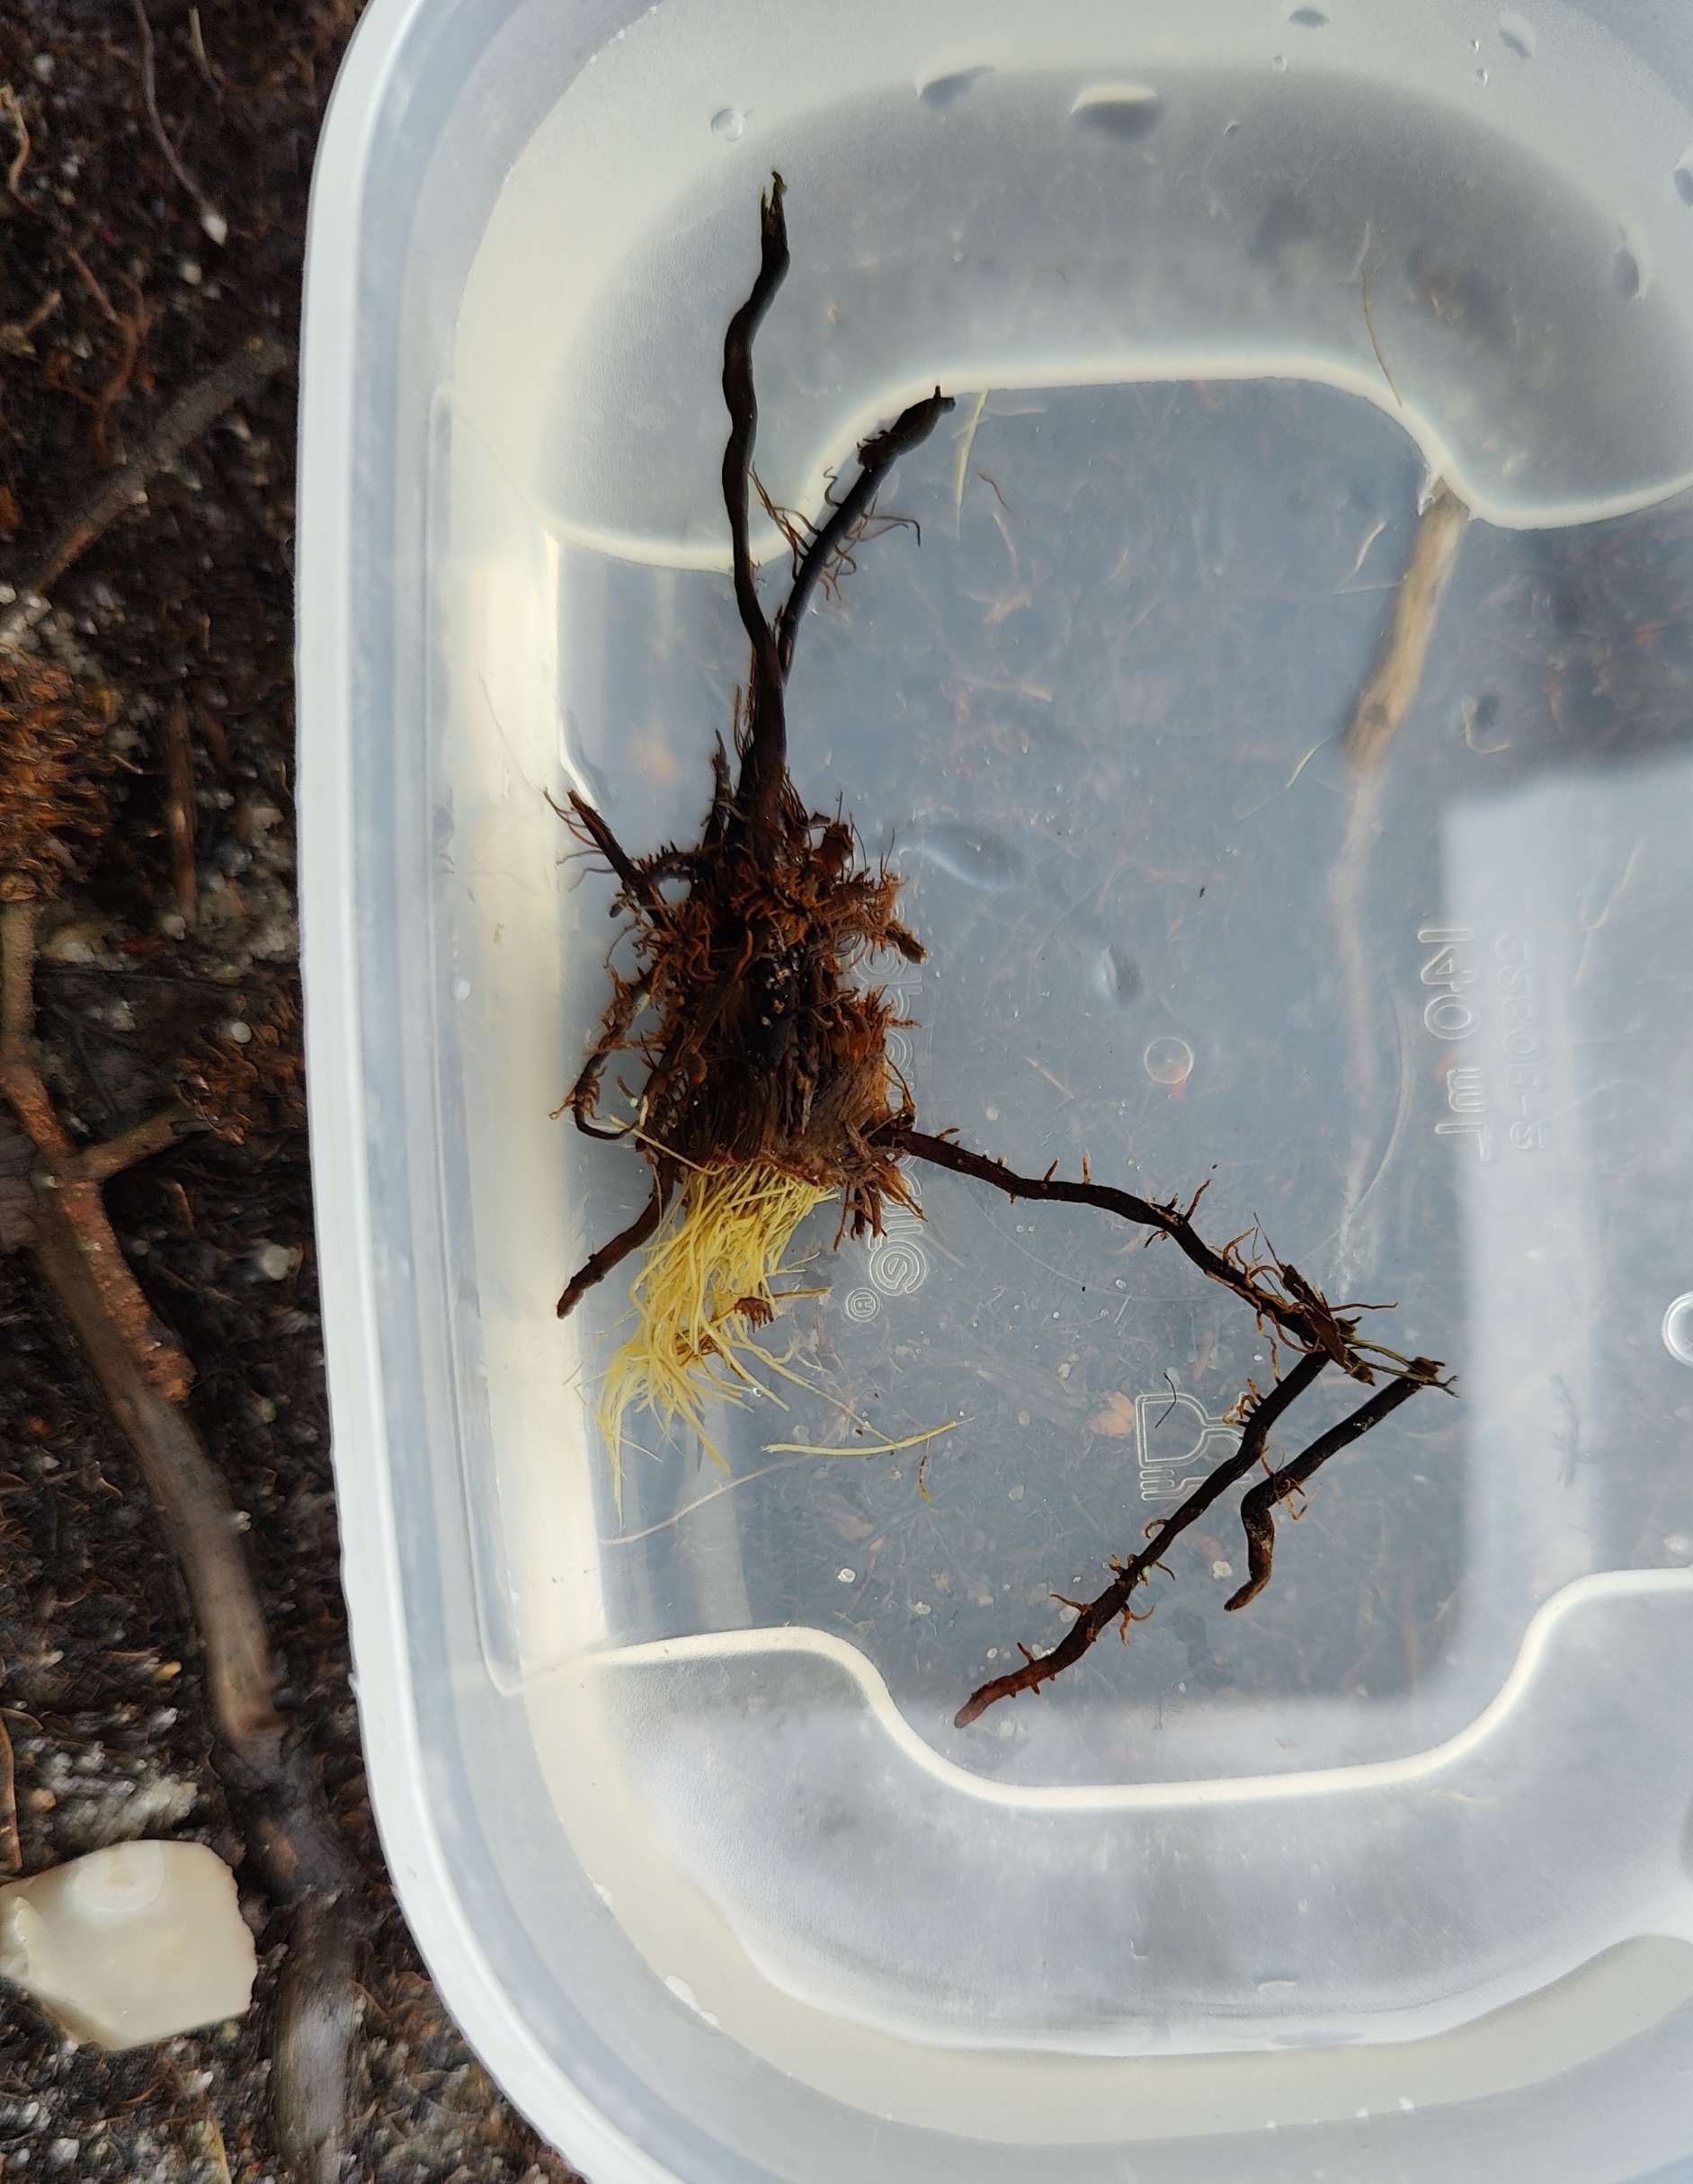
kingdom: Plantae
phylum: Tracheophyta
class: Magnoliopsida
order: Fagales
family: Betulaceae
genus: Alnus
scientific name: Alnus glutinosa
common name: Rød-el
